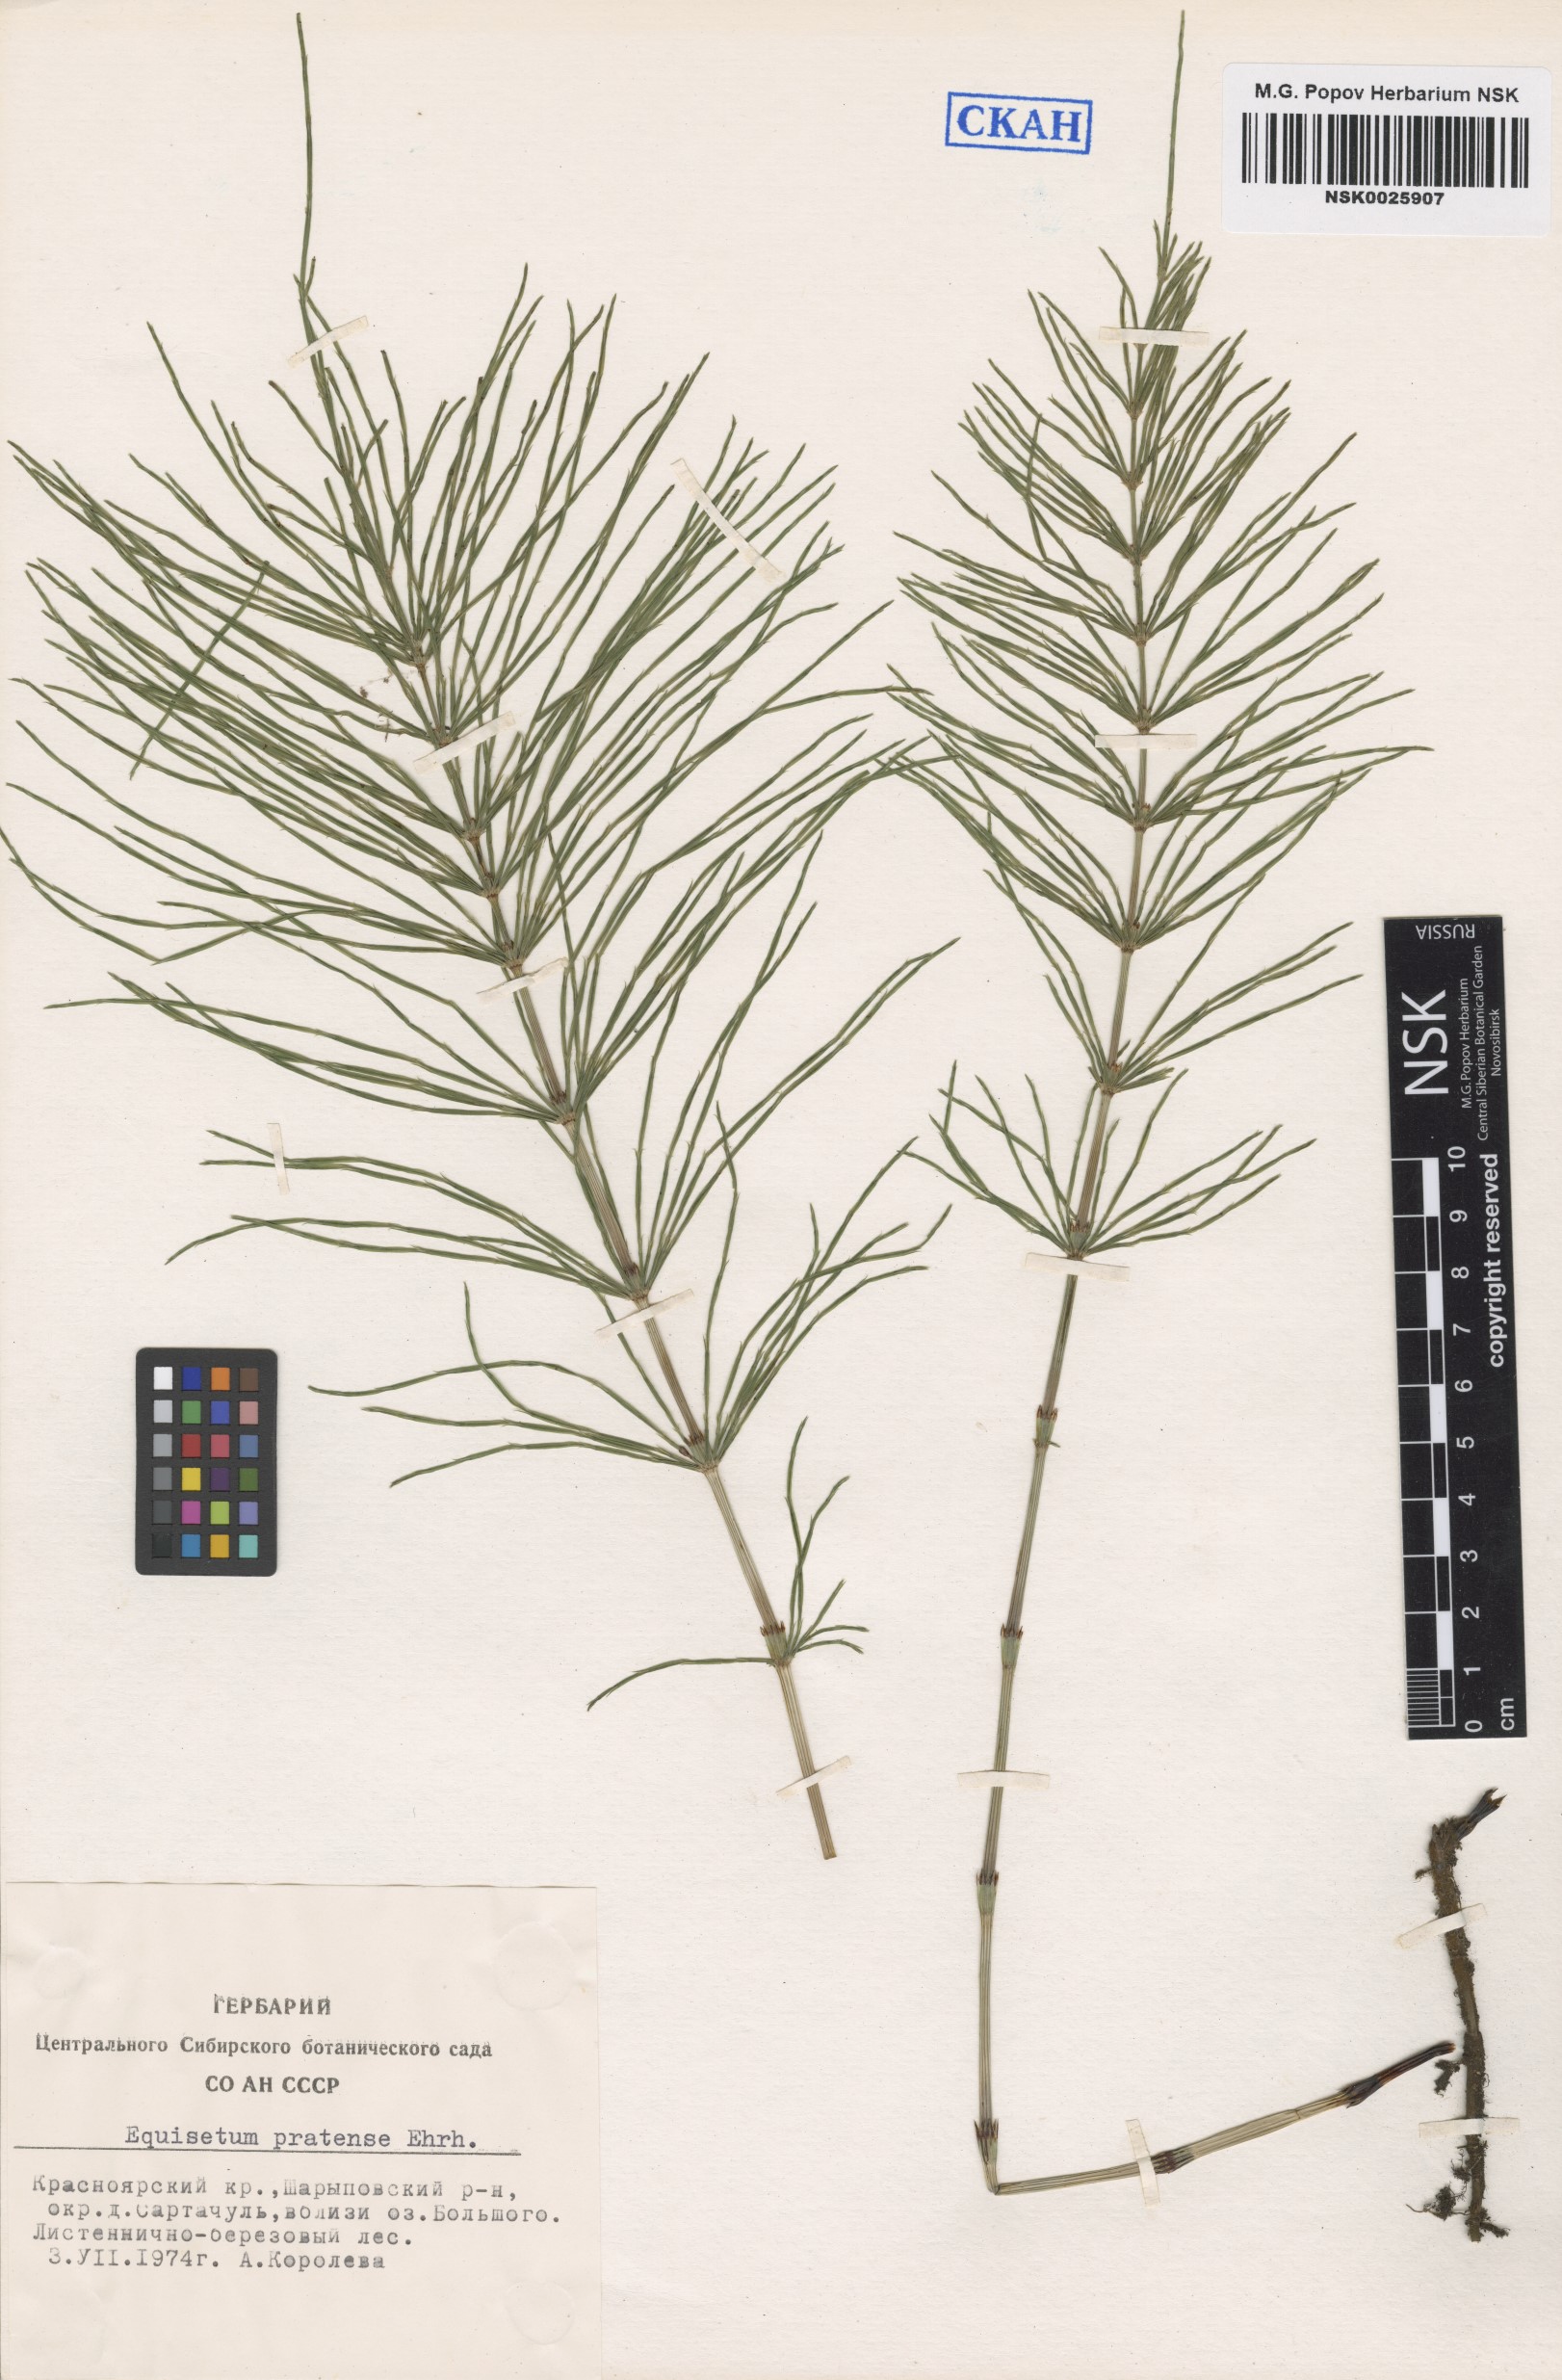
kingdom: Plantae
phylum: Tracheophyta
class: Polypodiopsida
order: Equisetales
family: Equisetaceae
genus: Equisetum
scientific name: Equisetum pratense
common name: Meadow horsetail
